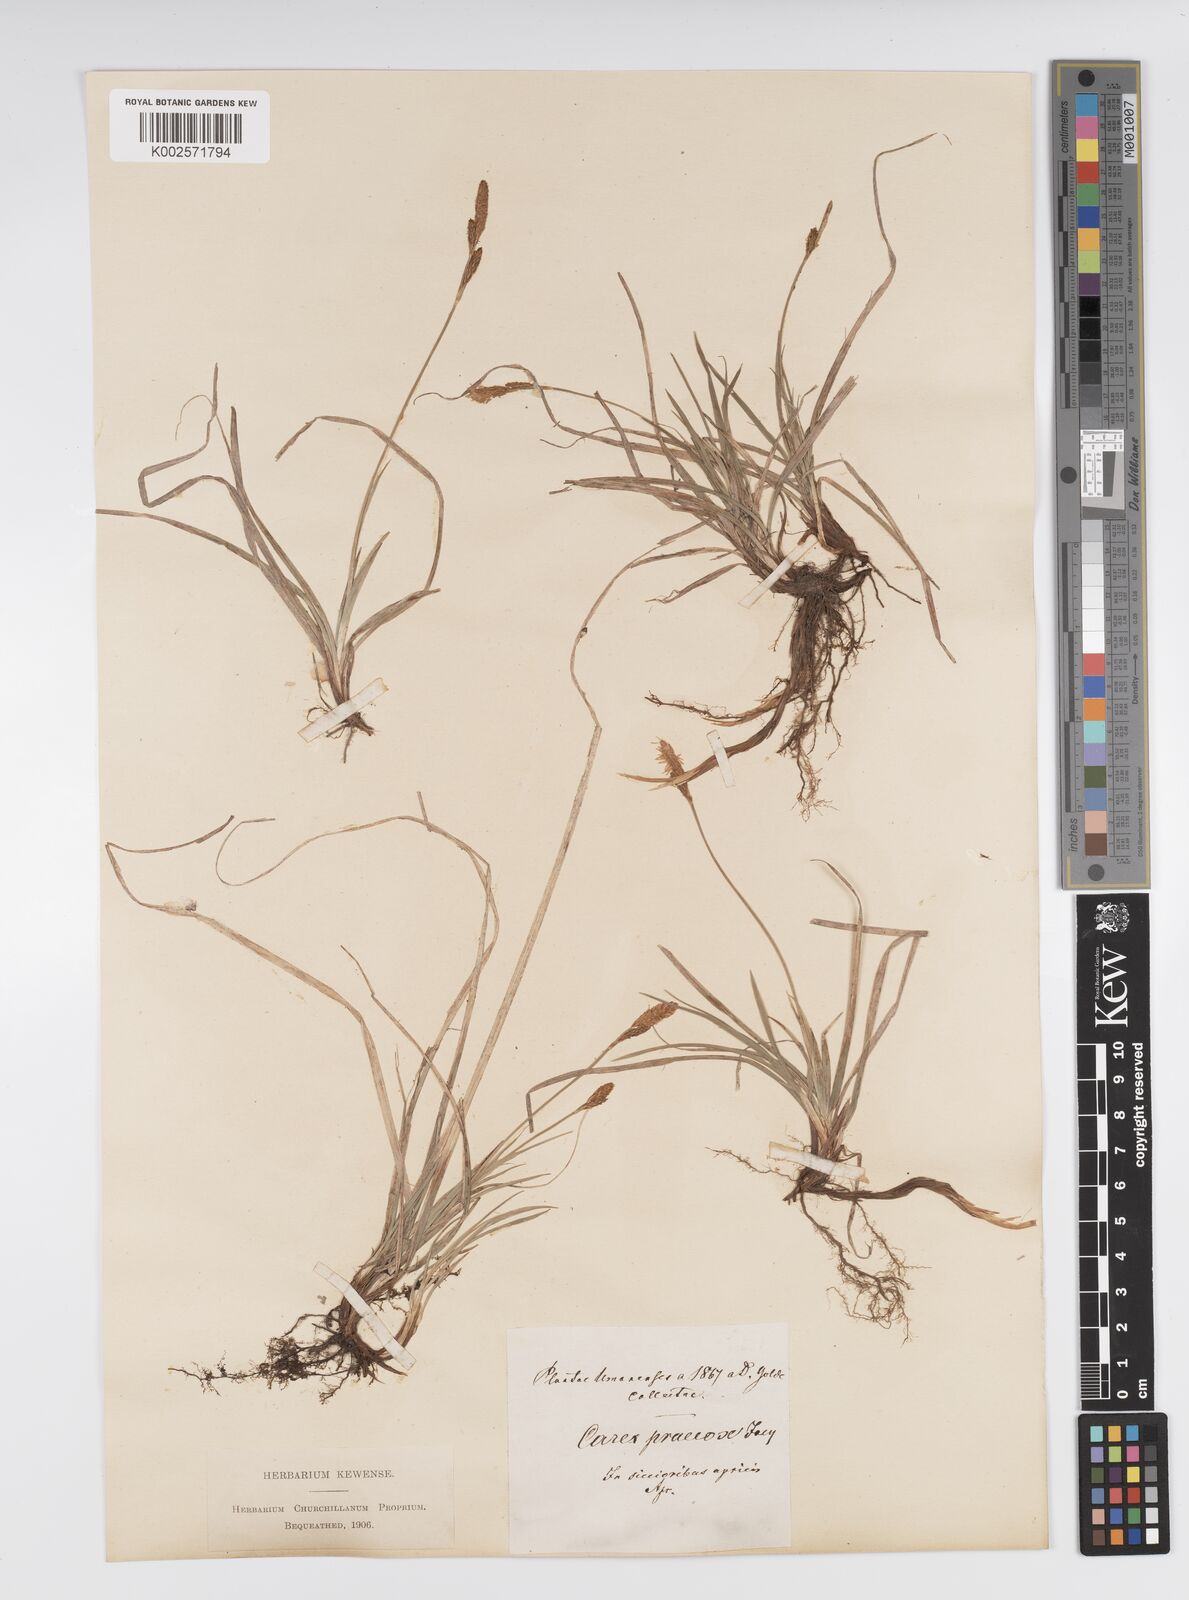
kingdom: Plantae
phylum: Tracheophyta
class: Liliopsida
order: Poales
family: Cyperaceae
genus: Carex
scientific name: Carex caryophyllea
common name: Spring sedge
